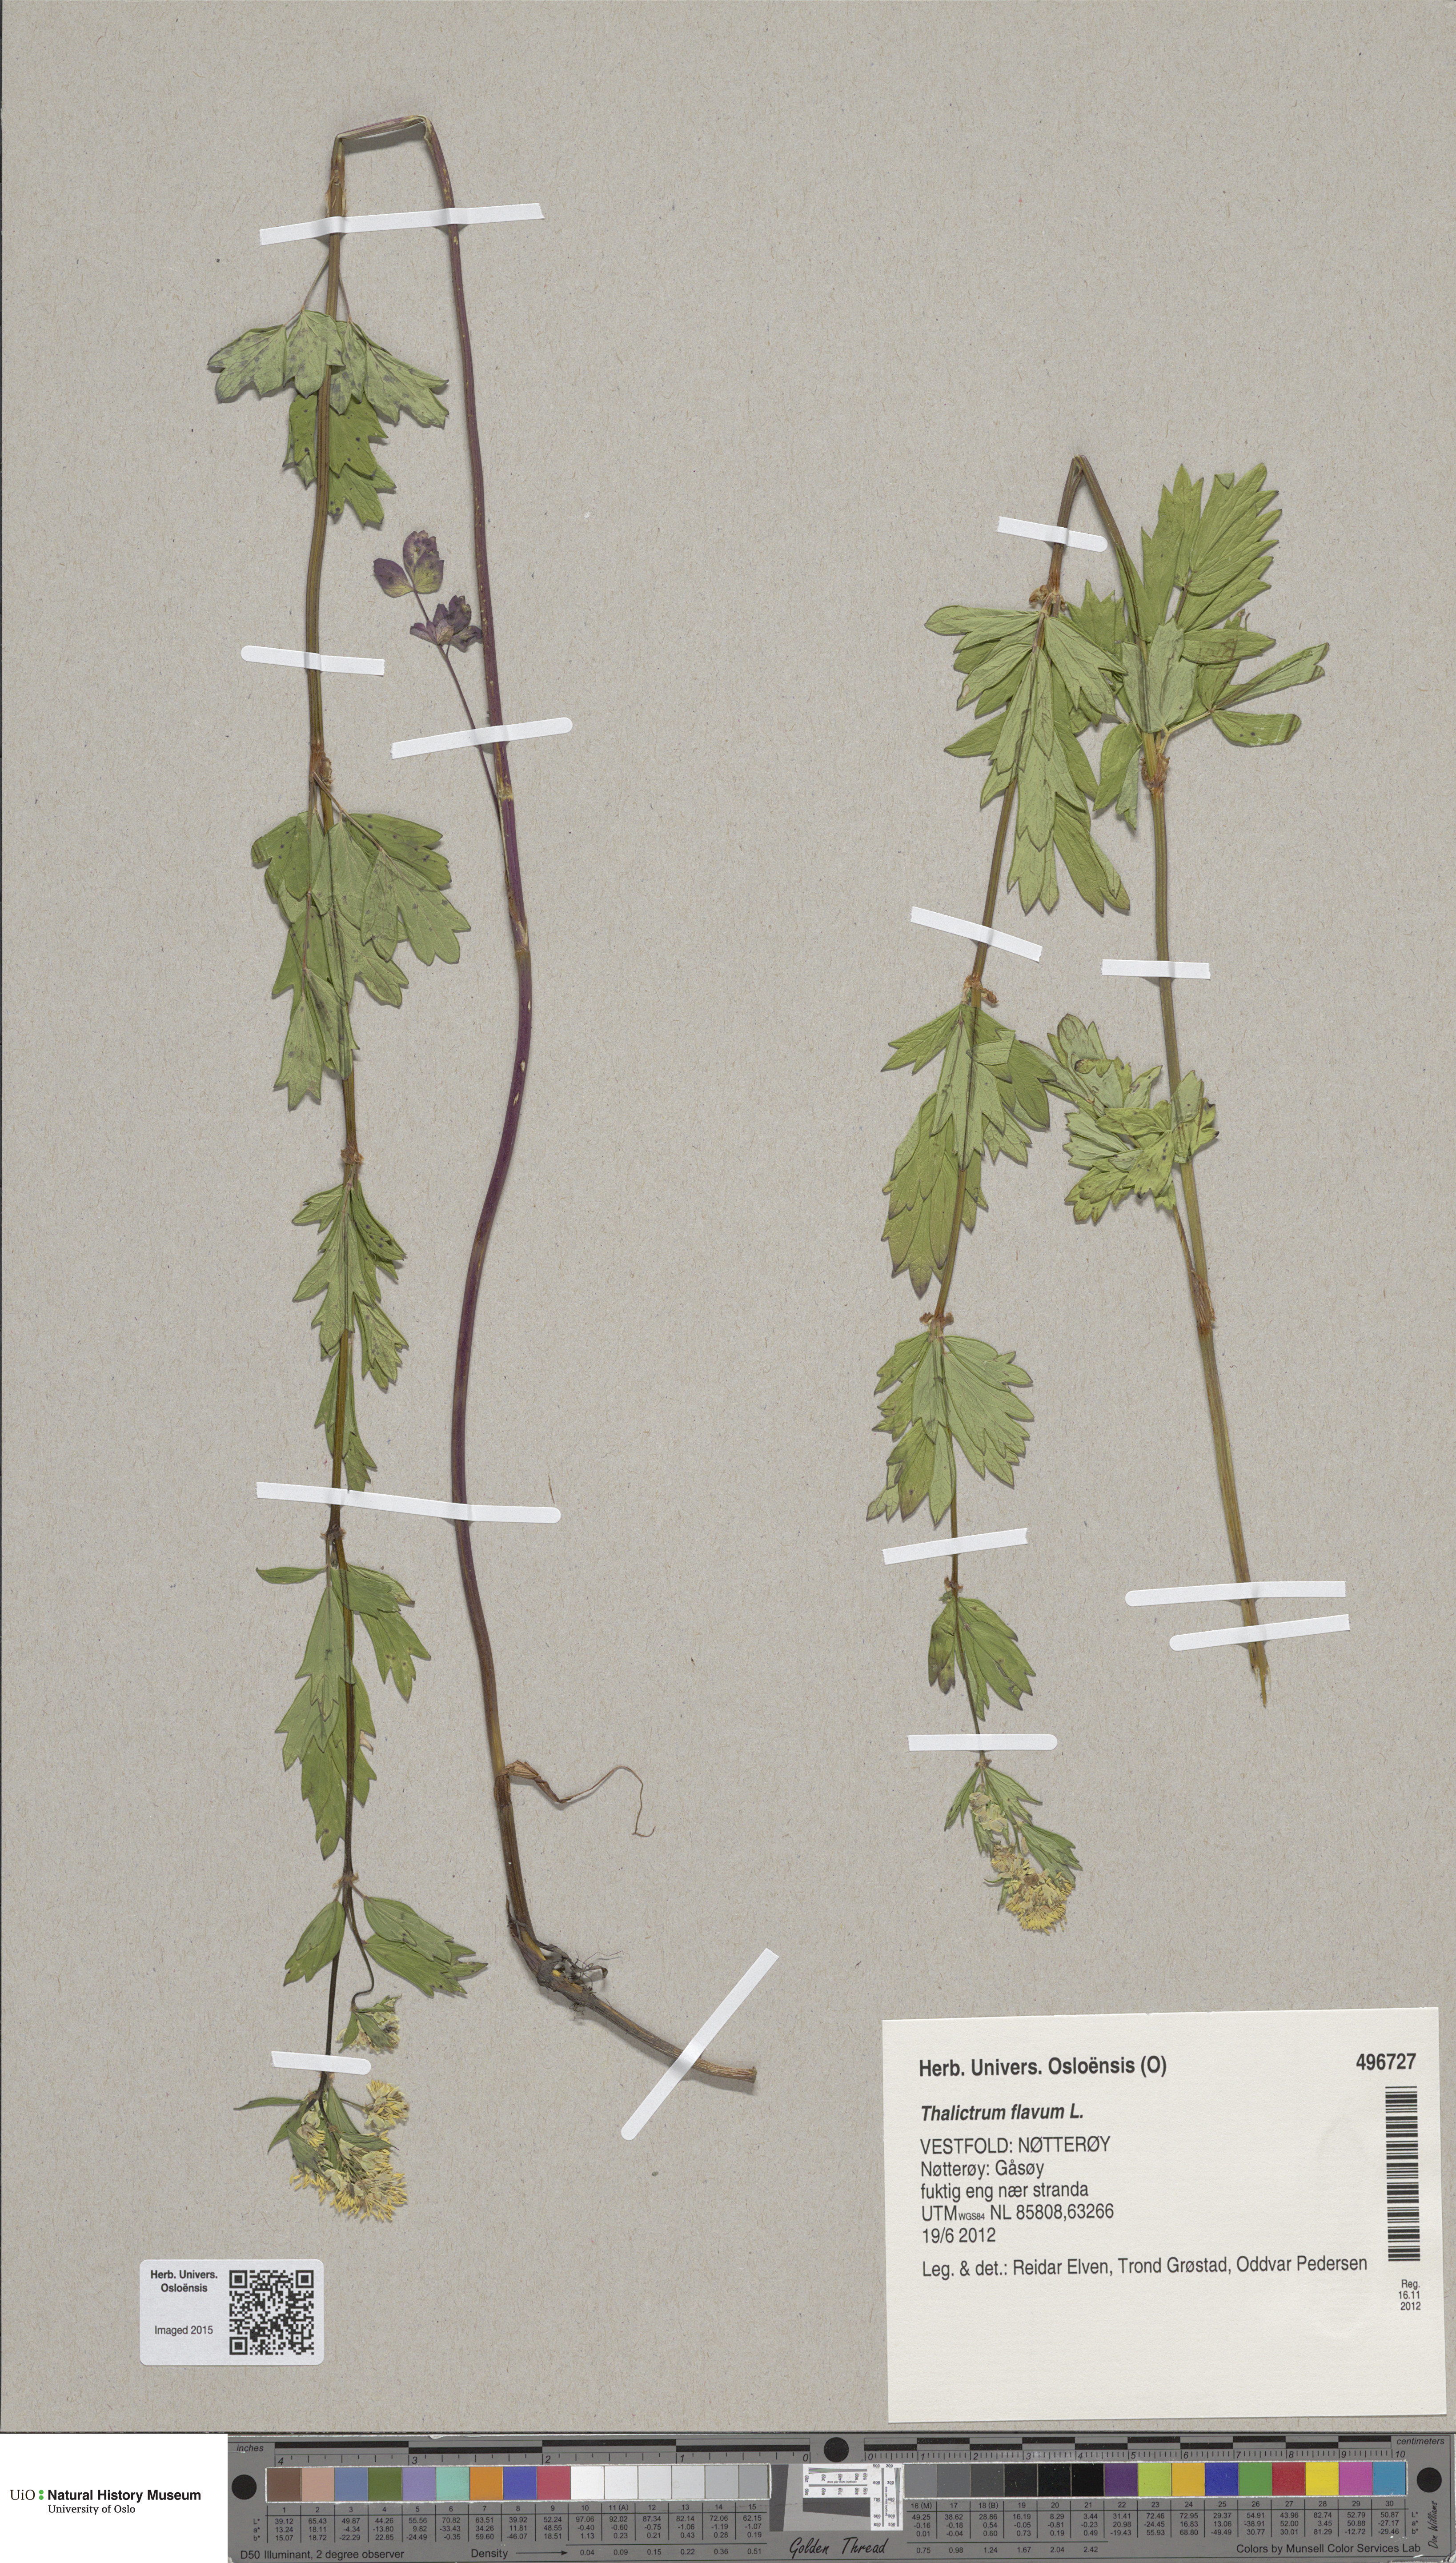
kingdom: Plantae
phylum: Tracheophyta
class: Magnoliopsida
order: Ranunculales
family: Ranunculaceae
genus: Thalictrum
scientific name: Thalictrum flavum
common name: Common meadow-rue
